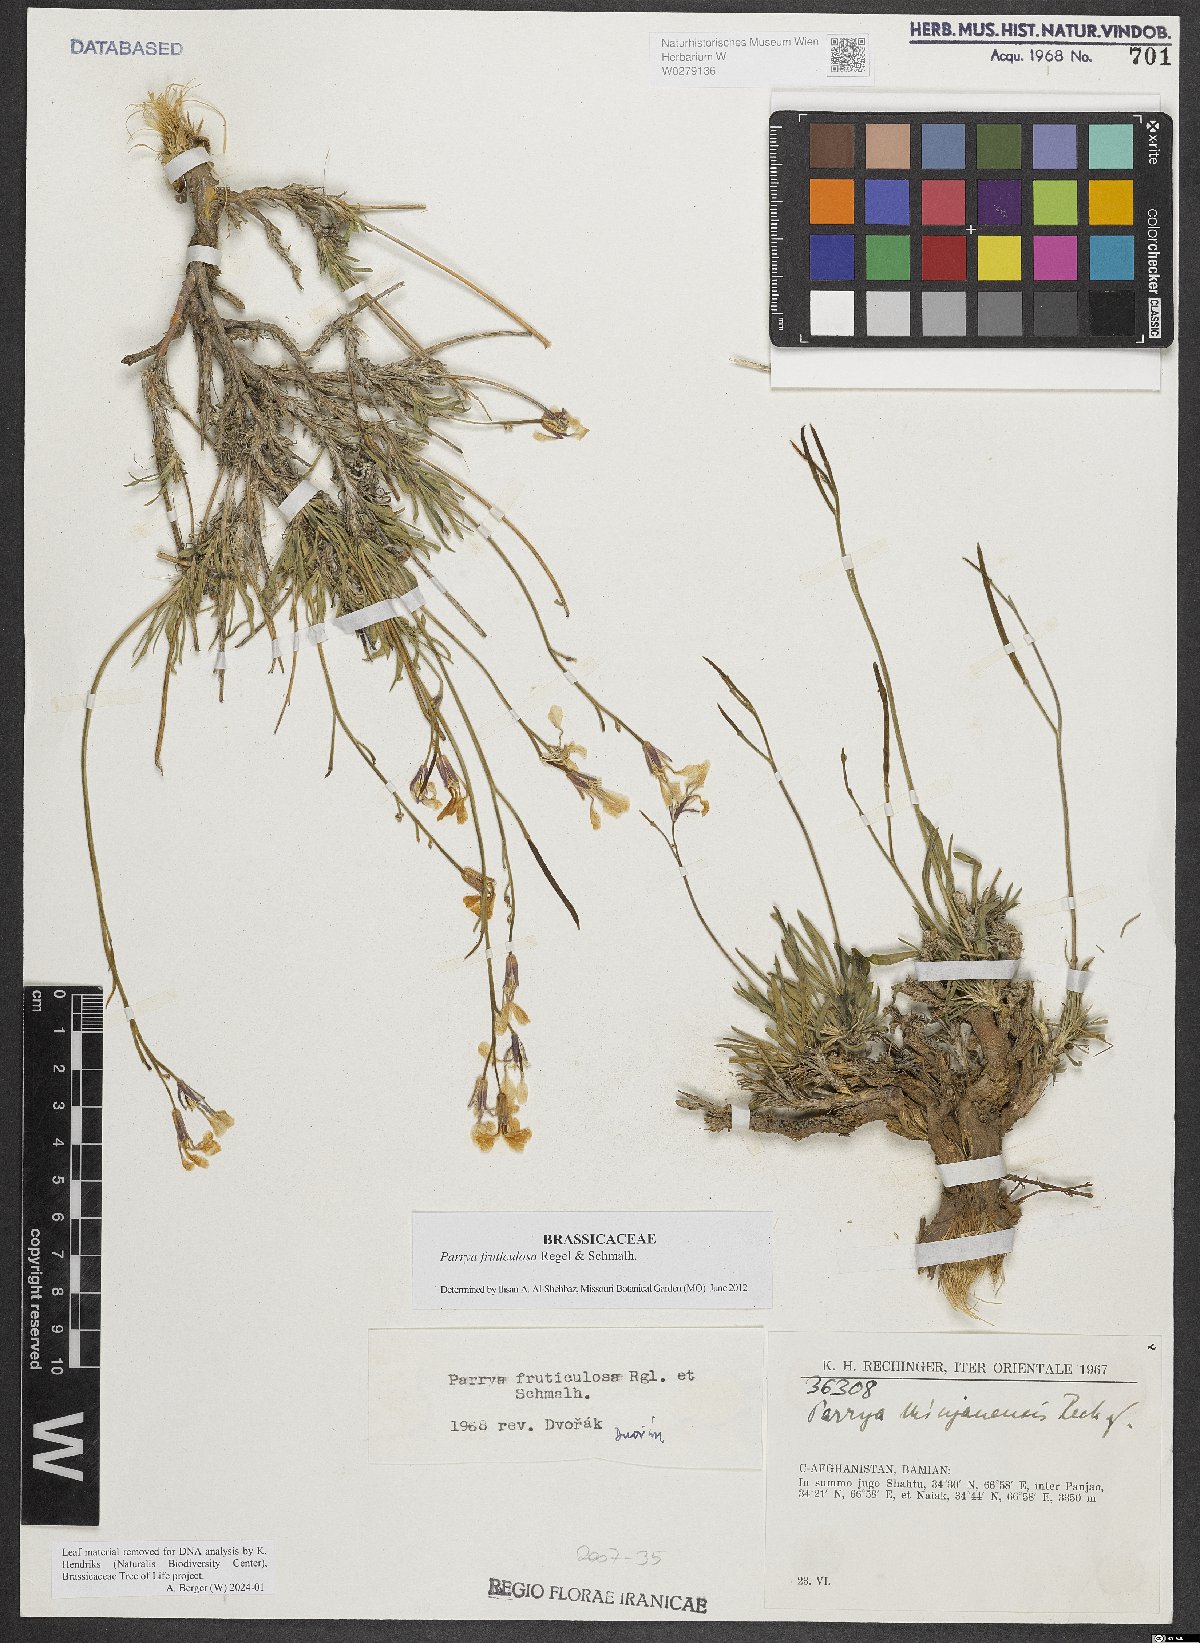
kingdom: Plantae
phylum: Tracheophyta
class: Magnoliopsida
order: Brassicales
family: Brassicaceae
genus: Parrya
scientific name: Parrya fruticulosa
